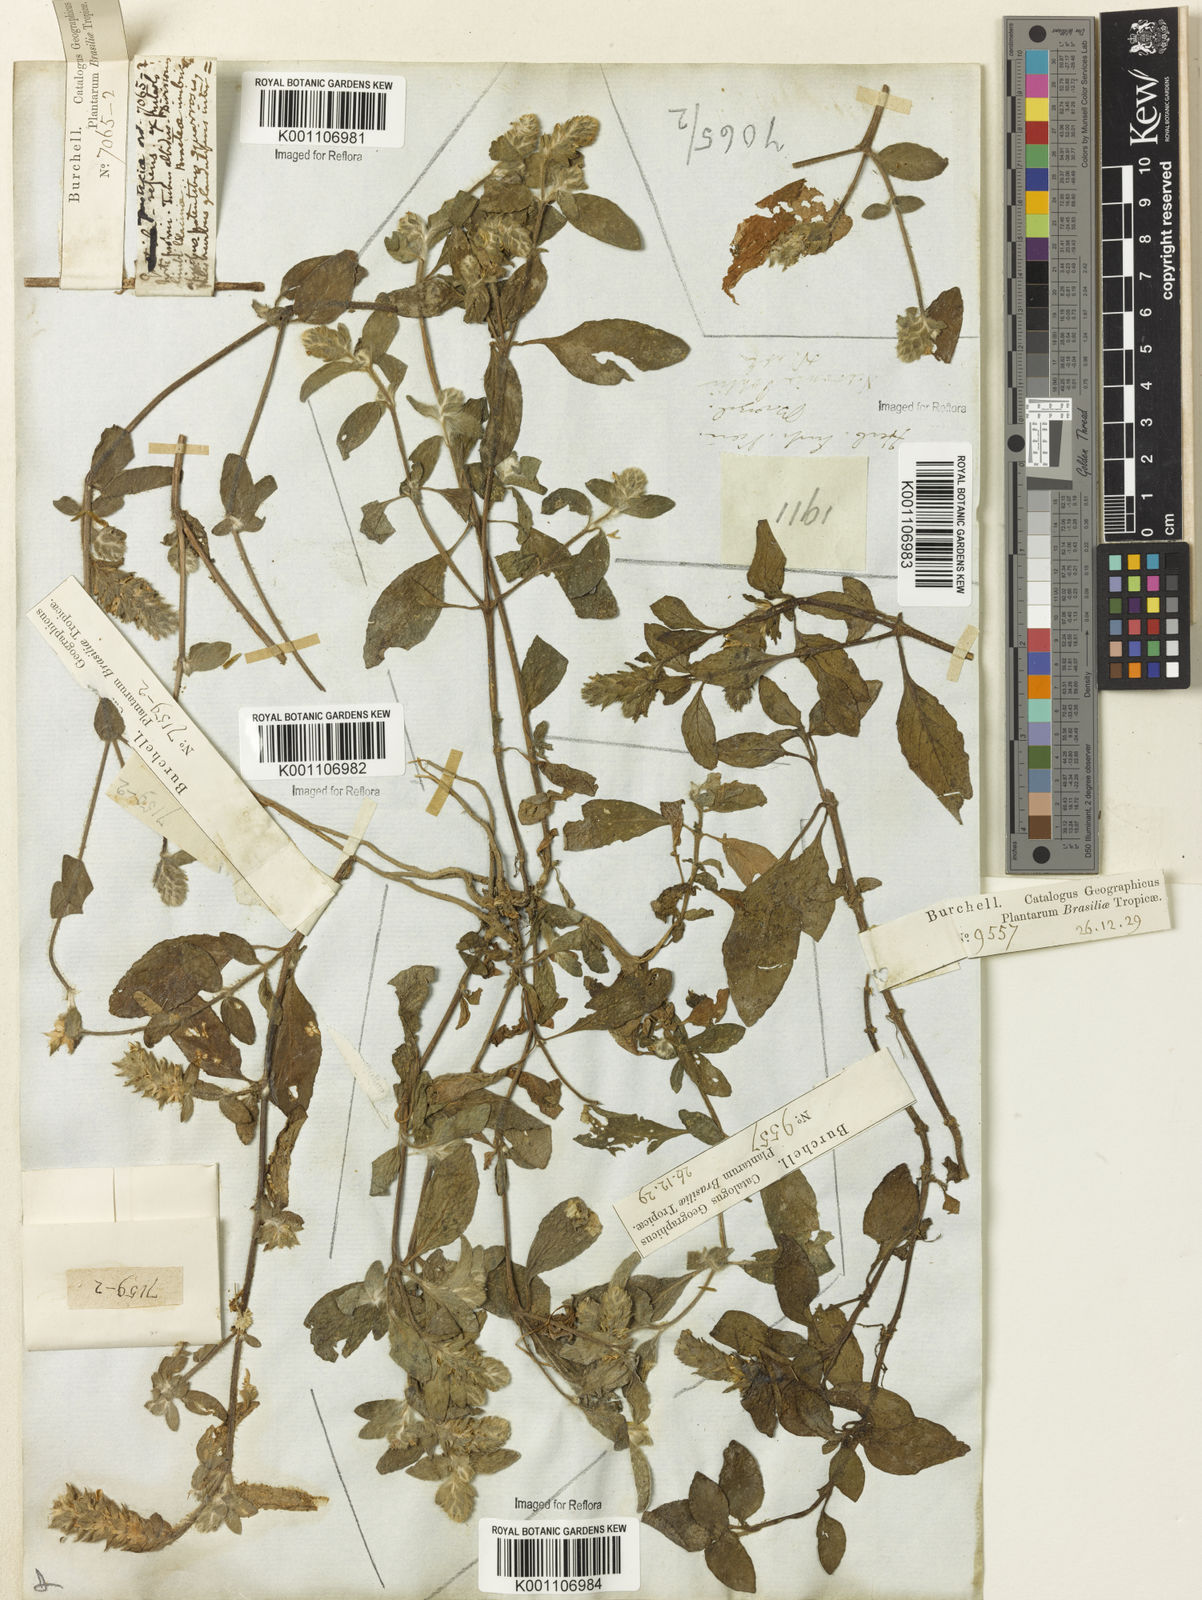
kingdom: Plantae
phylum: Tracheophyta
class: Magnoliopsida
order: Lamiales
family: Acanthaceae
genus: Nelsonia
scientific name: Nelsonia canescens
